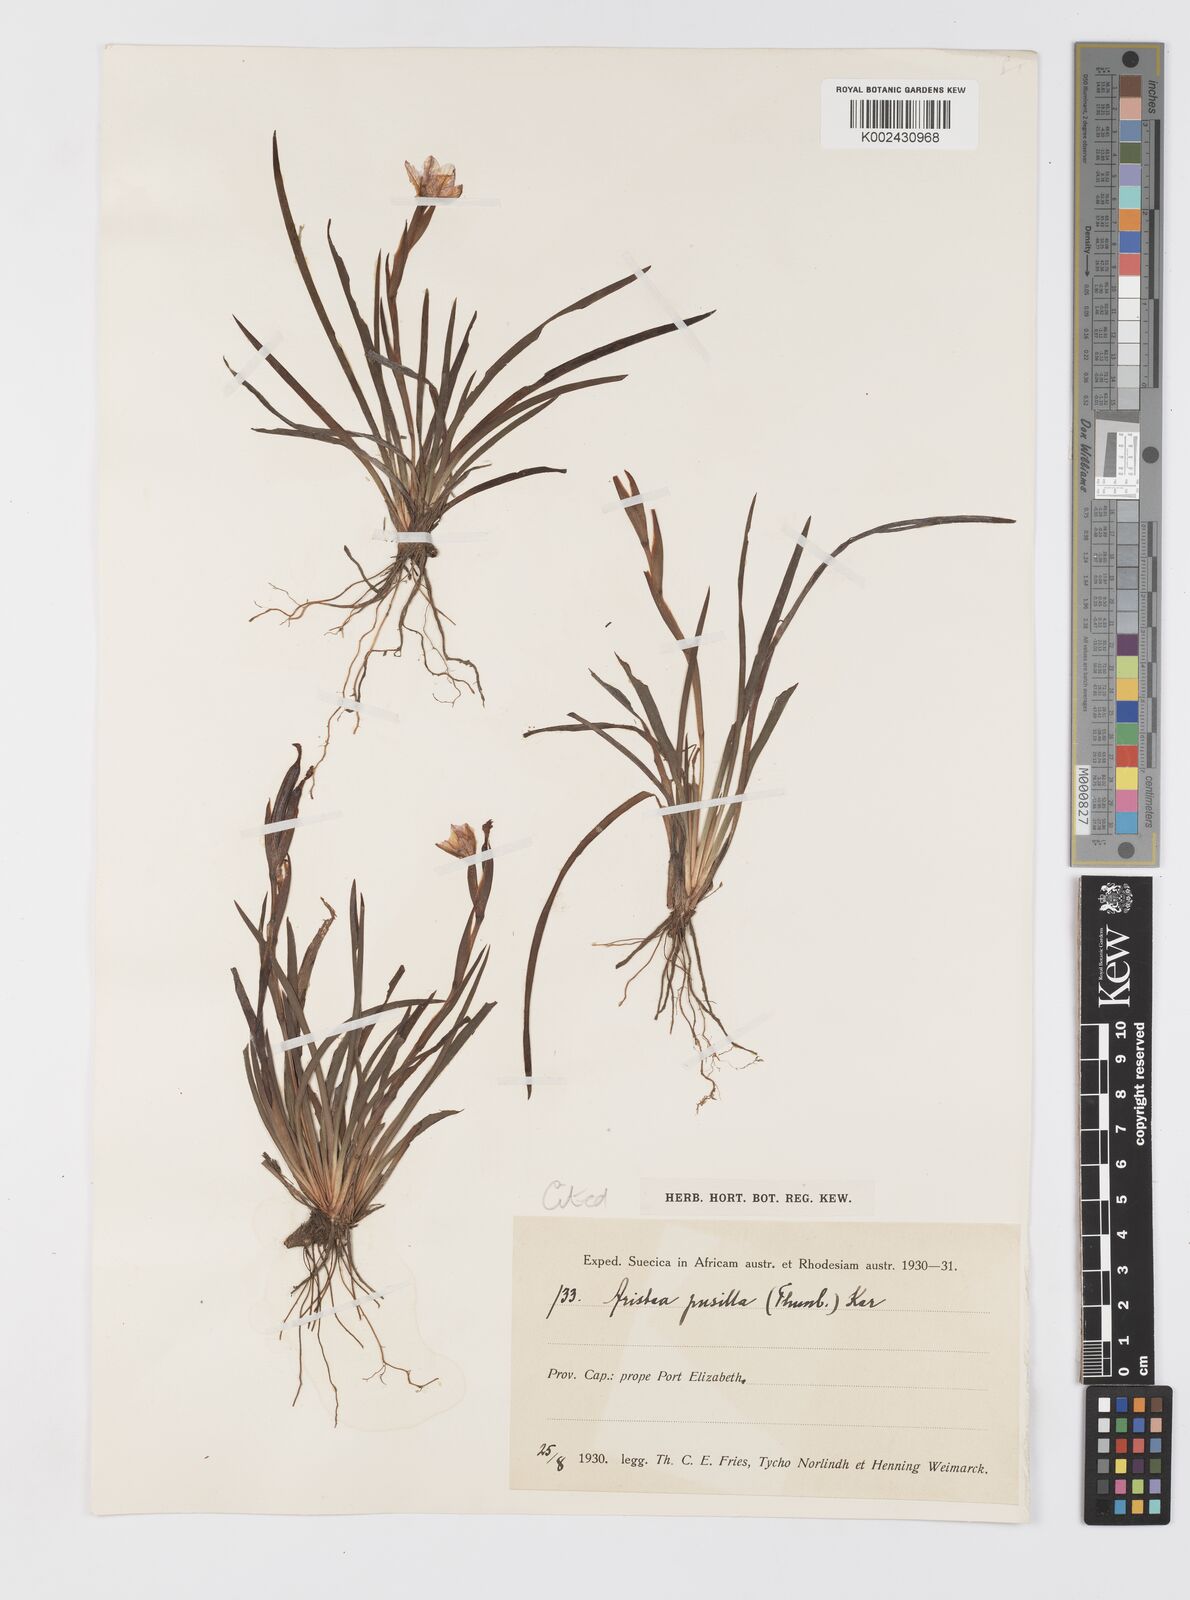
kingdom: Plantae
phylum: Tracheophyta
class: Liliopsida
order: Asparagales
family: Iridaceae
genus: Aristea
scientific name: Aristea pusilla
